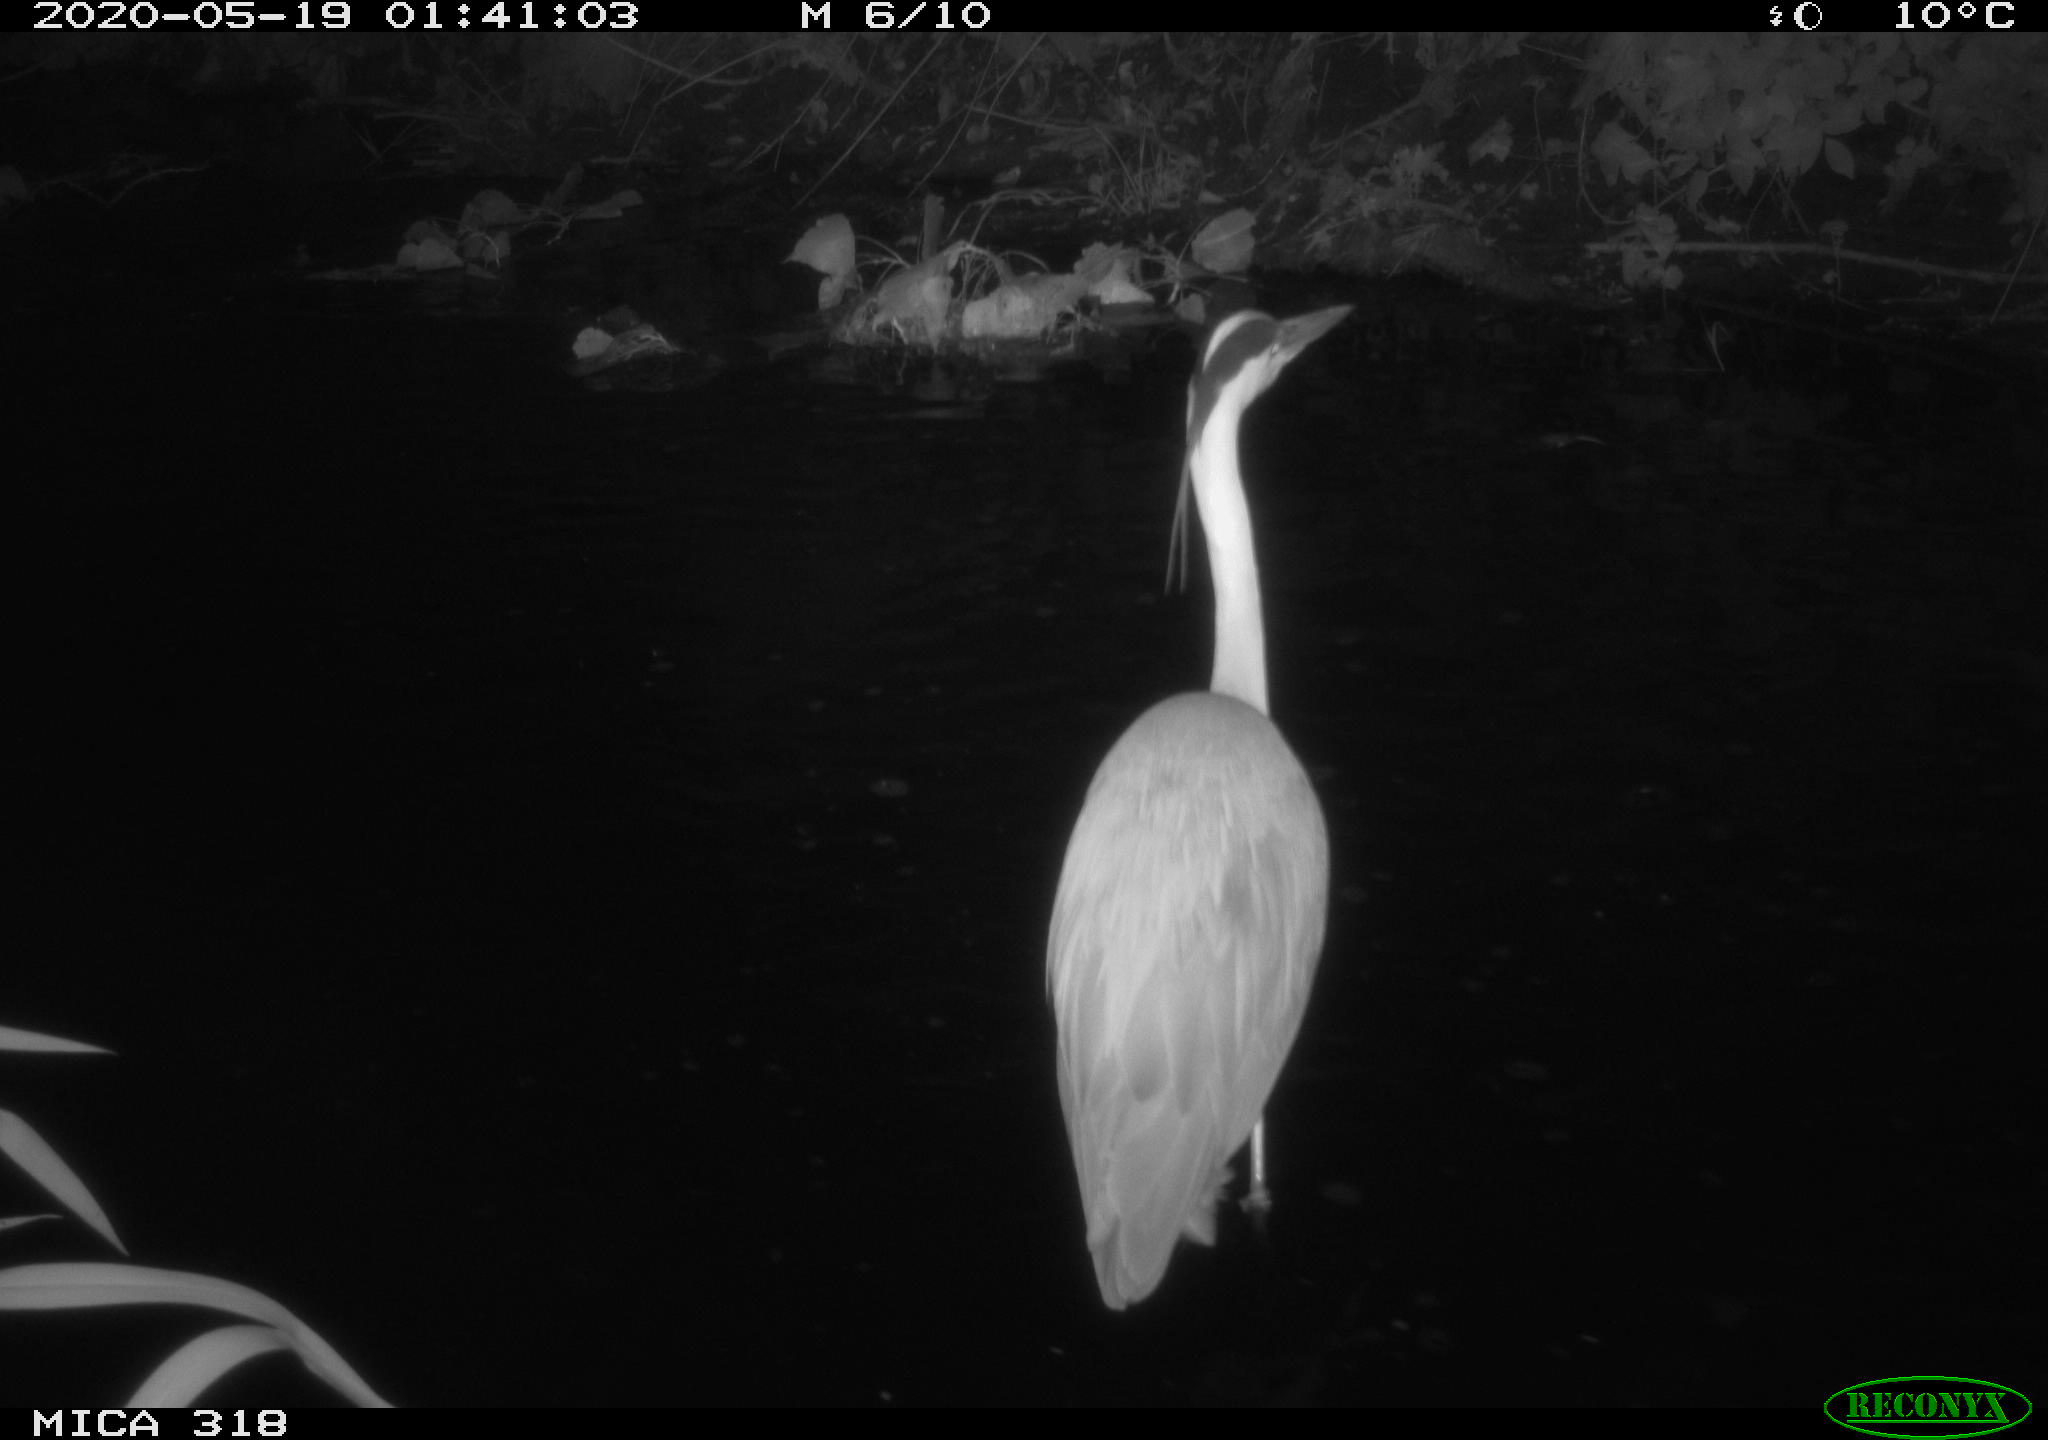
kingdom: Animalia
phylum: Chordata
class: Aves
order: Pelecaniformes
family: Ardeidae
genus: Ardea
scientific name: Ardea cinerea
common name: Grey heron
